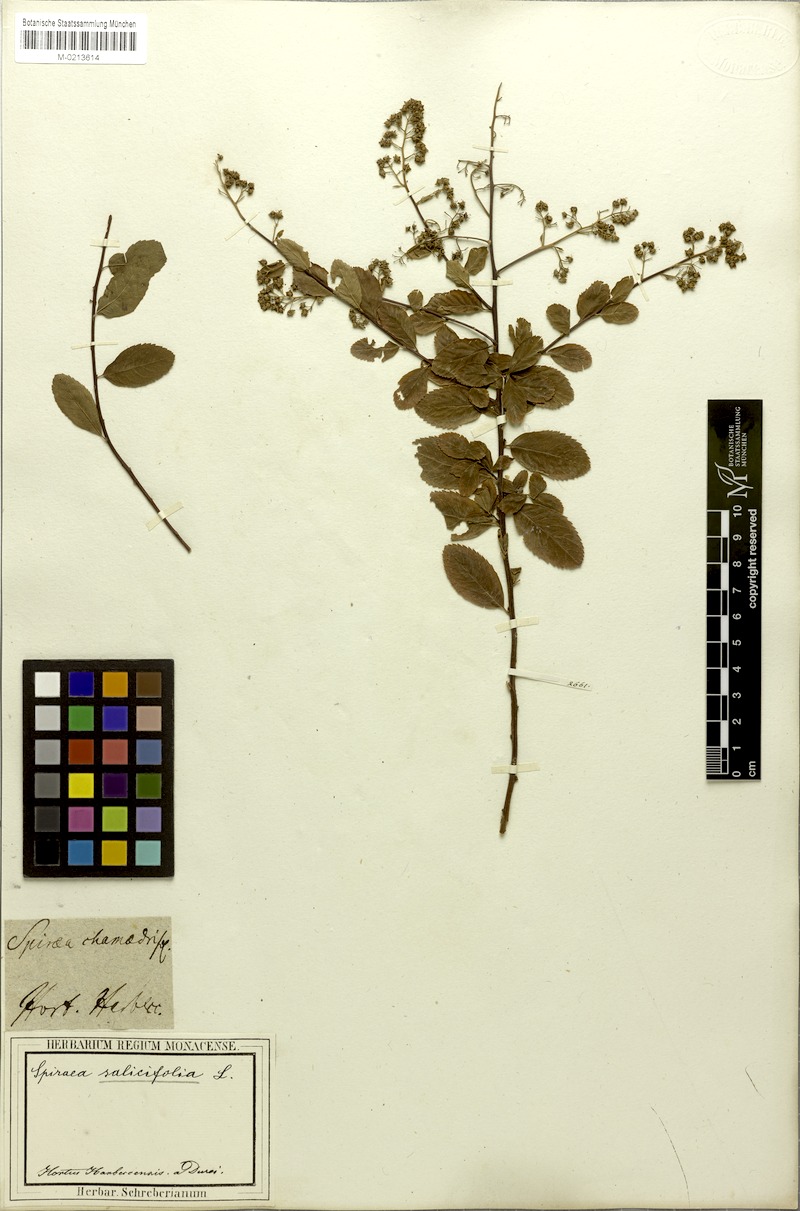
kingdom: Plantae
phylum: Tracheophyta
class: Magnoliopsida
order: Rosales
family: Rosaceae
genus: Spiraea
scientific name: Spiraea salicifolia
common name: Bridewort
